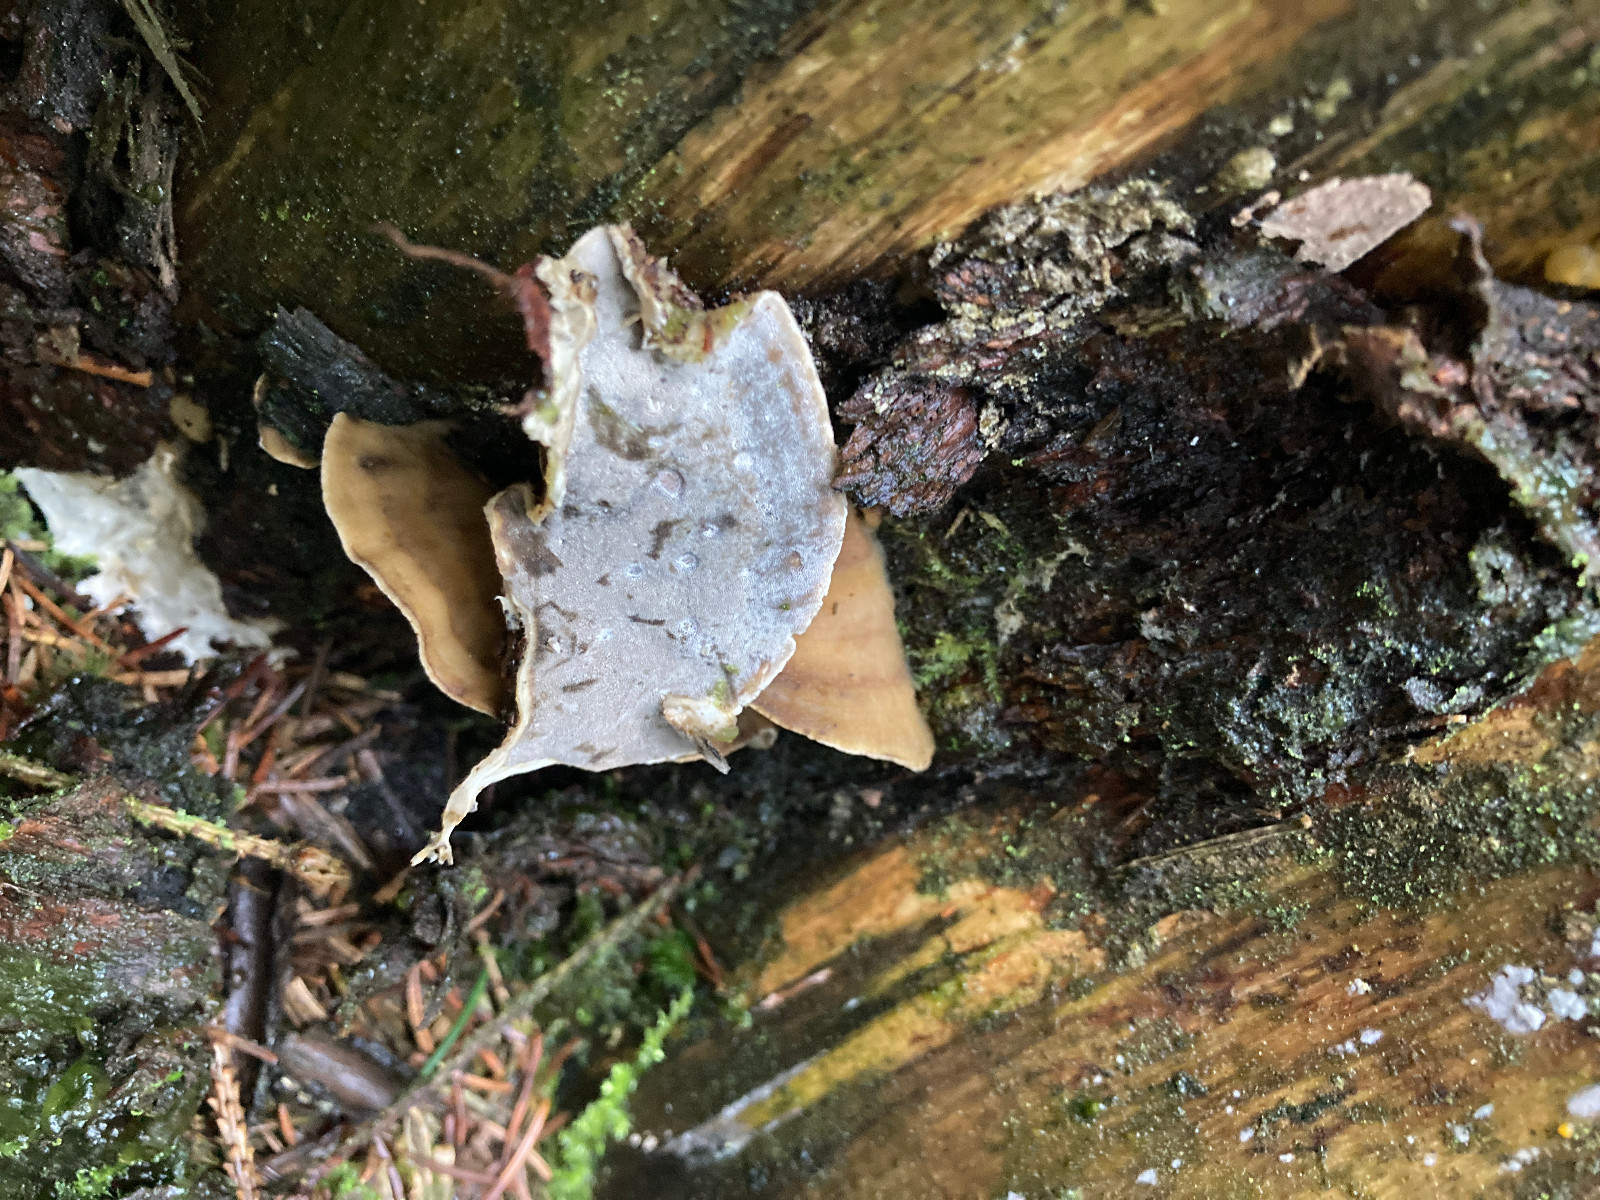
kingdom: Fungi
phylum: Basidiomycota
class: Agaricomycetes
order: Polyporales
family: Phanerochaetaceae
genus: Bjerkandera
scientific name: Bjerkandera adusta
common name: sveden sodporesvamp
